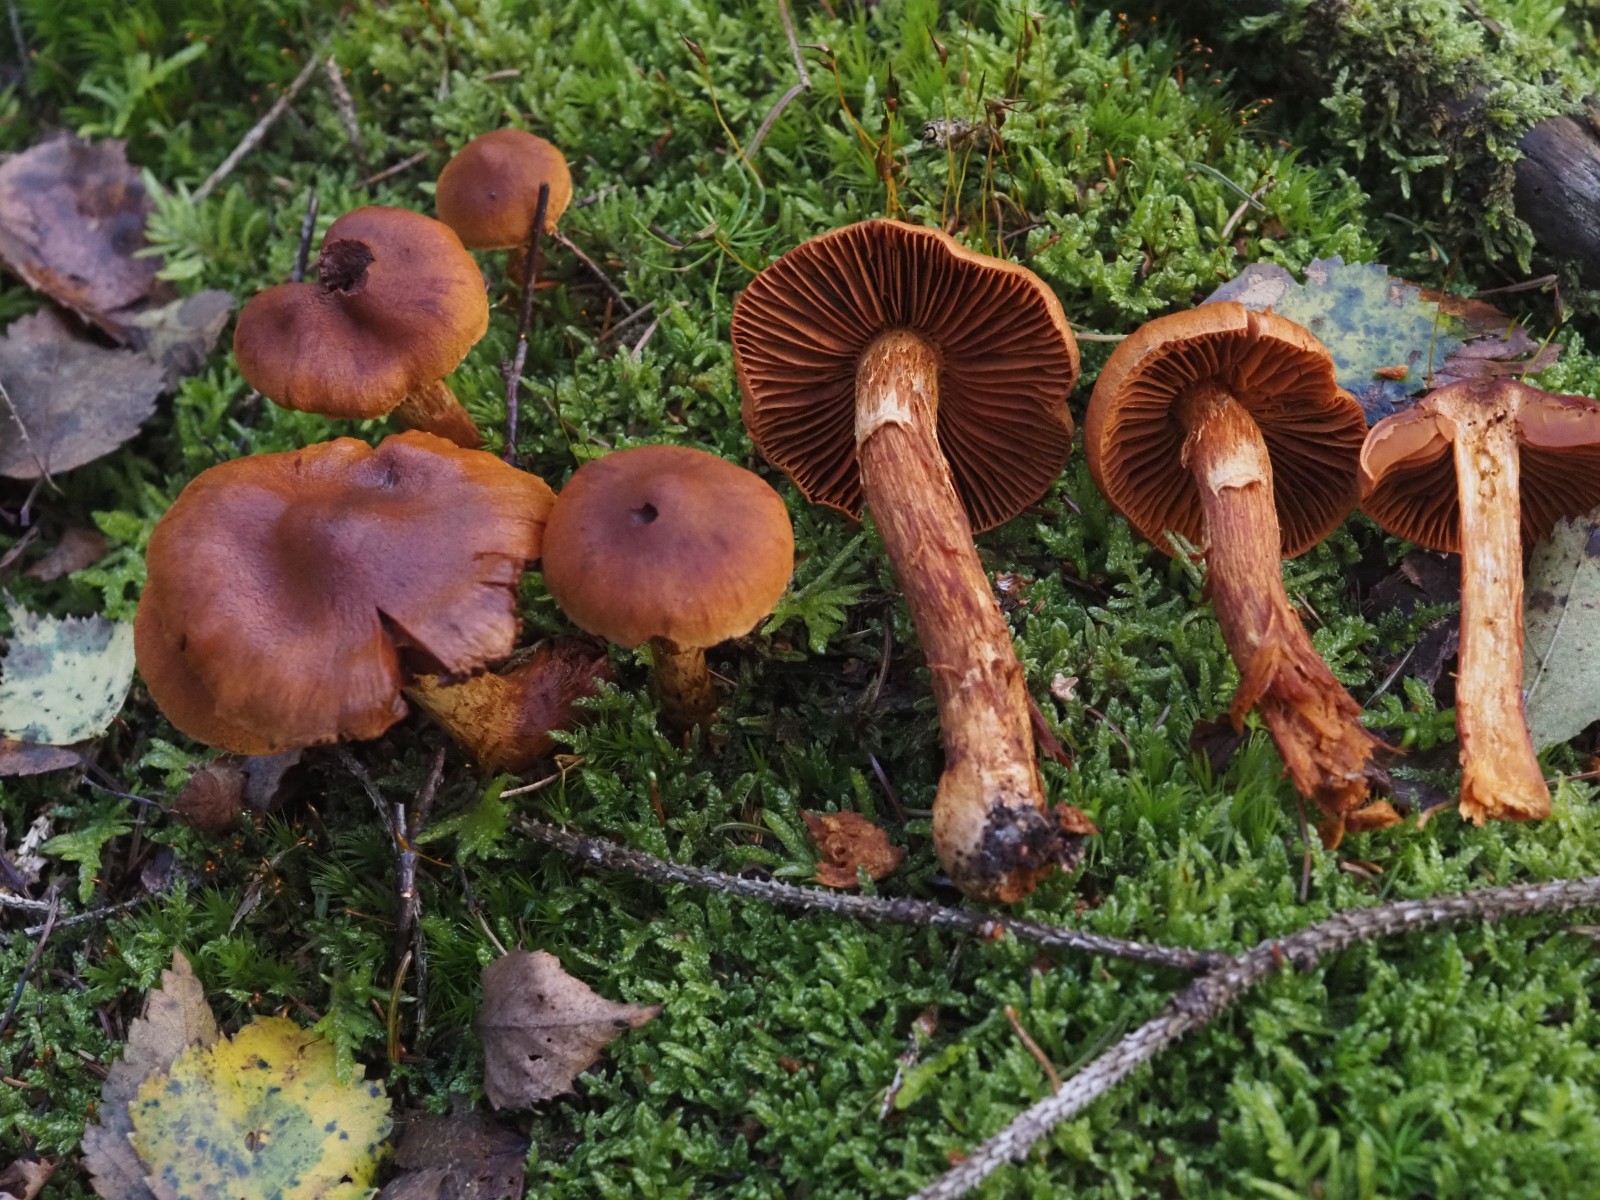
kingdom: Fungi
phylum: Basidiomycota
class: Agaricomycetes
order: Agaricales
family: Cortinariaceae
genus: Cortinarius
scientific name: Cortinarius rubellus
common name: puklet gift-slørhat
